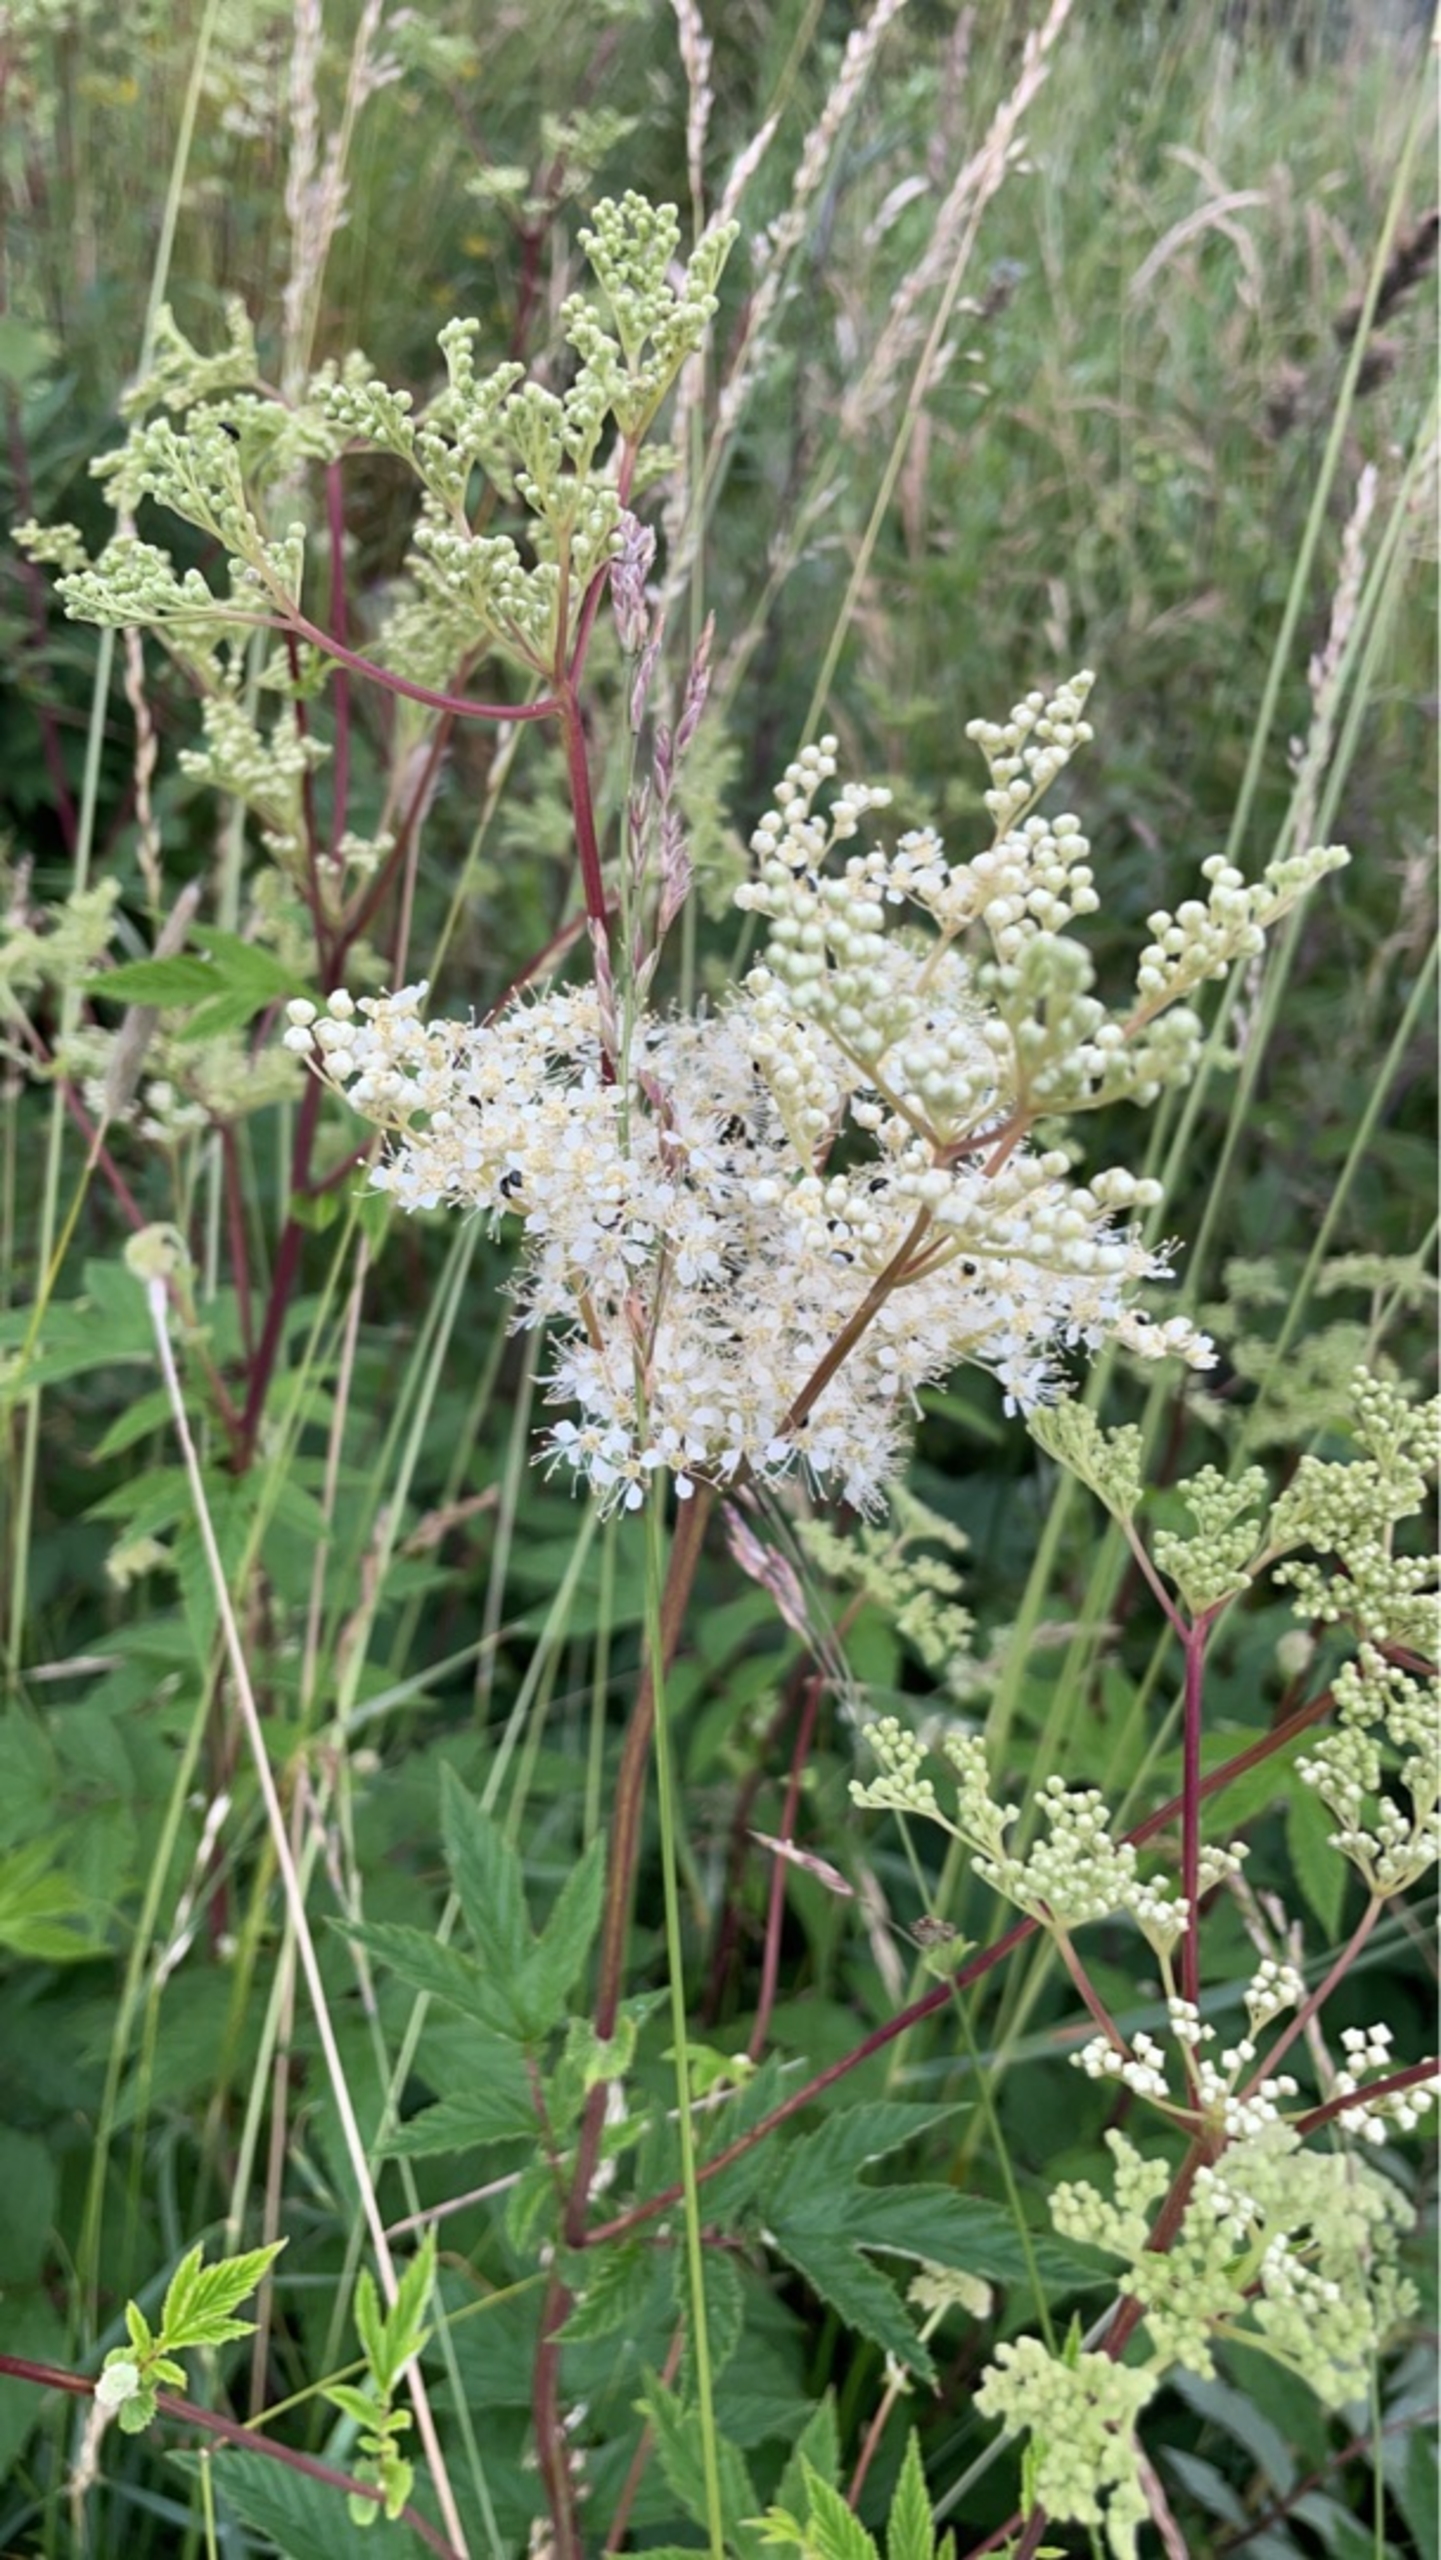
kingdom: Plantae
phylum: Tracheophyta
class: Magnoliopsida
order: Rosales
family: Rosaceae
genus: Filipendula
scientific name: Filipendula ulmaria
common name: Almindelig mjødurt
